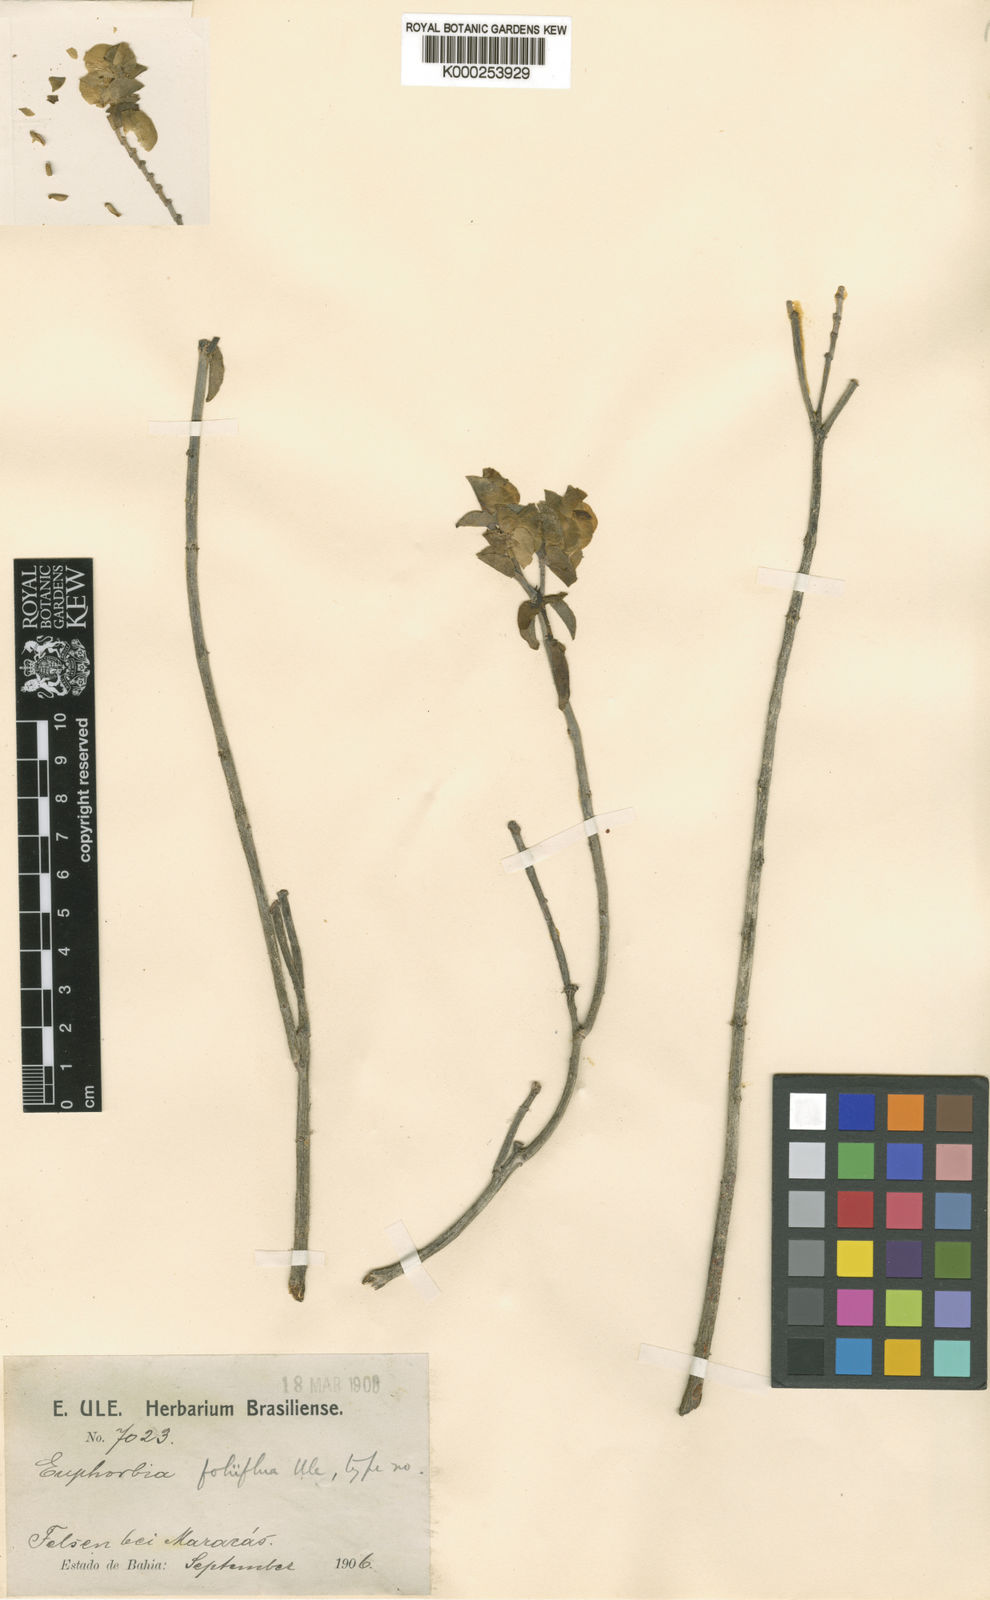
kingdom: Plantae
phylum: Tracheophyta
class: Magnoliopsida
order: Malpighiales
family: Euphorbiaceae
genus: Euphorbia
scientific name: Euphorbia
